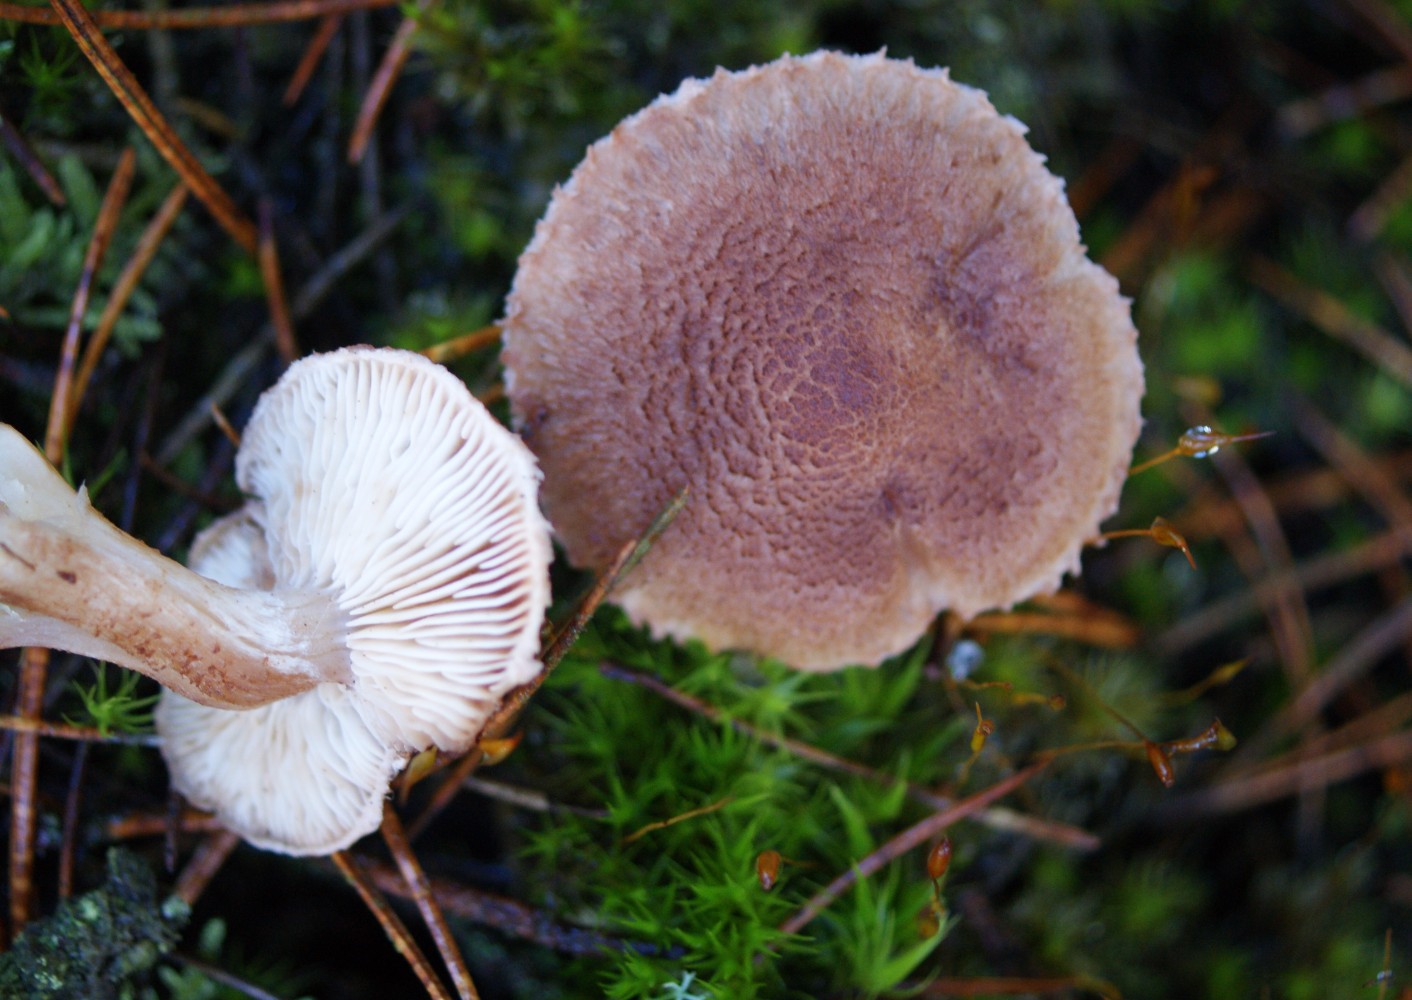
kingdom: Fungi
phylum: Basidiomycota
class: Agaricomycetes
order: Agaricales
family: Tricholomataceae
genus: Tricholoma
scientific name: Tricholoma vaccinum
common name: ko-ridderhat
